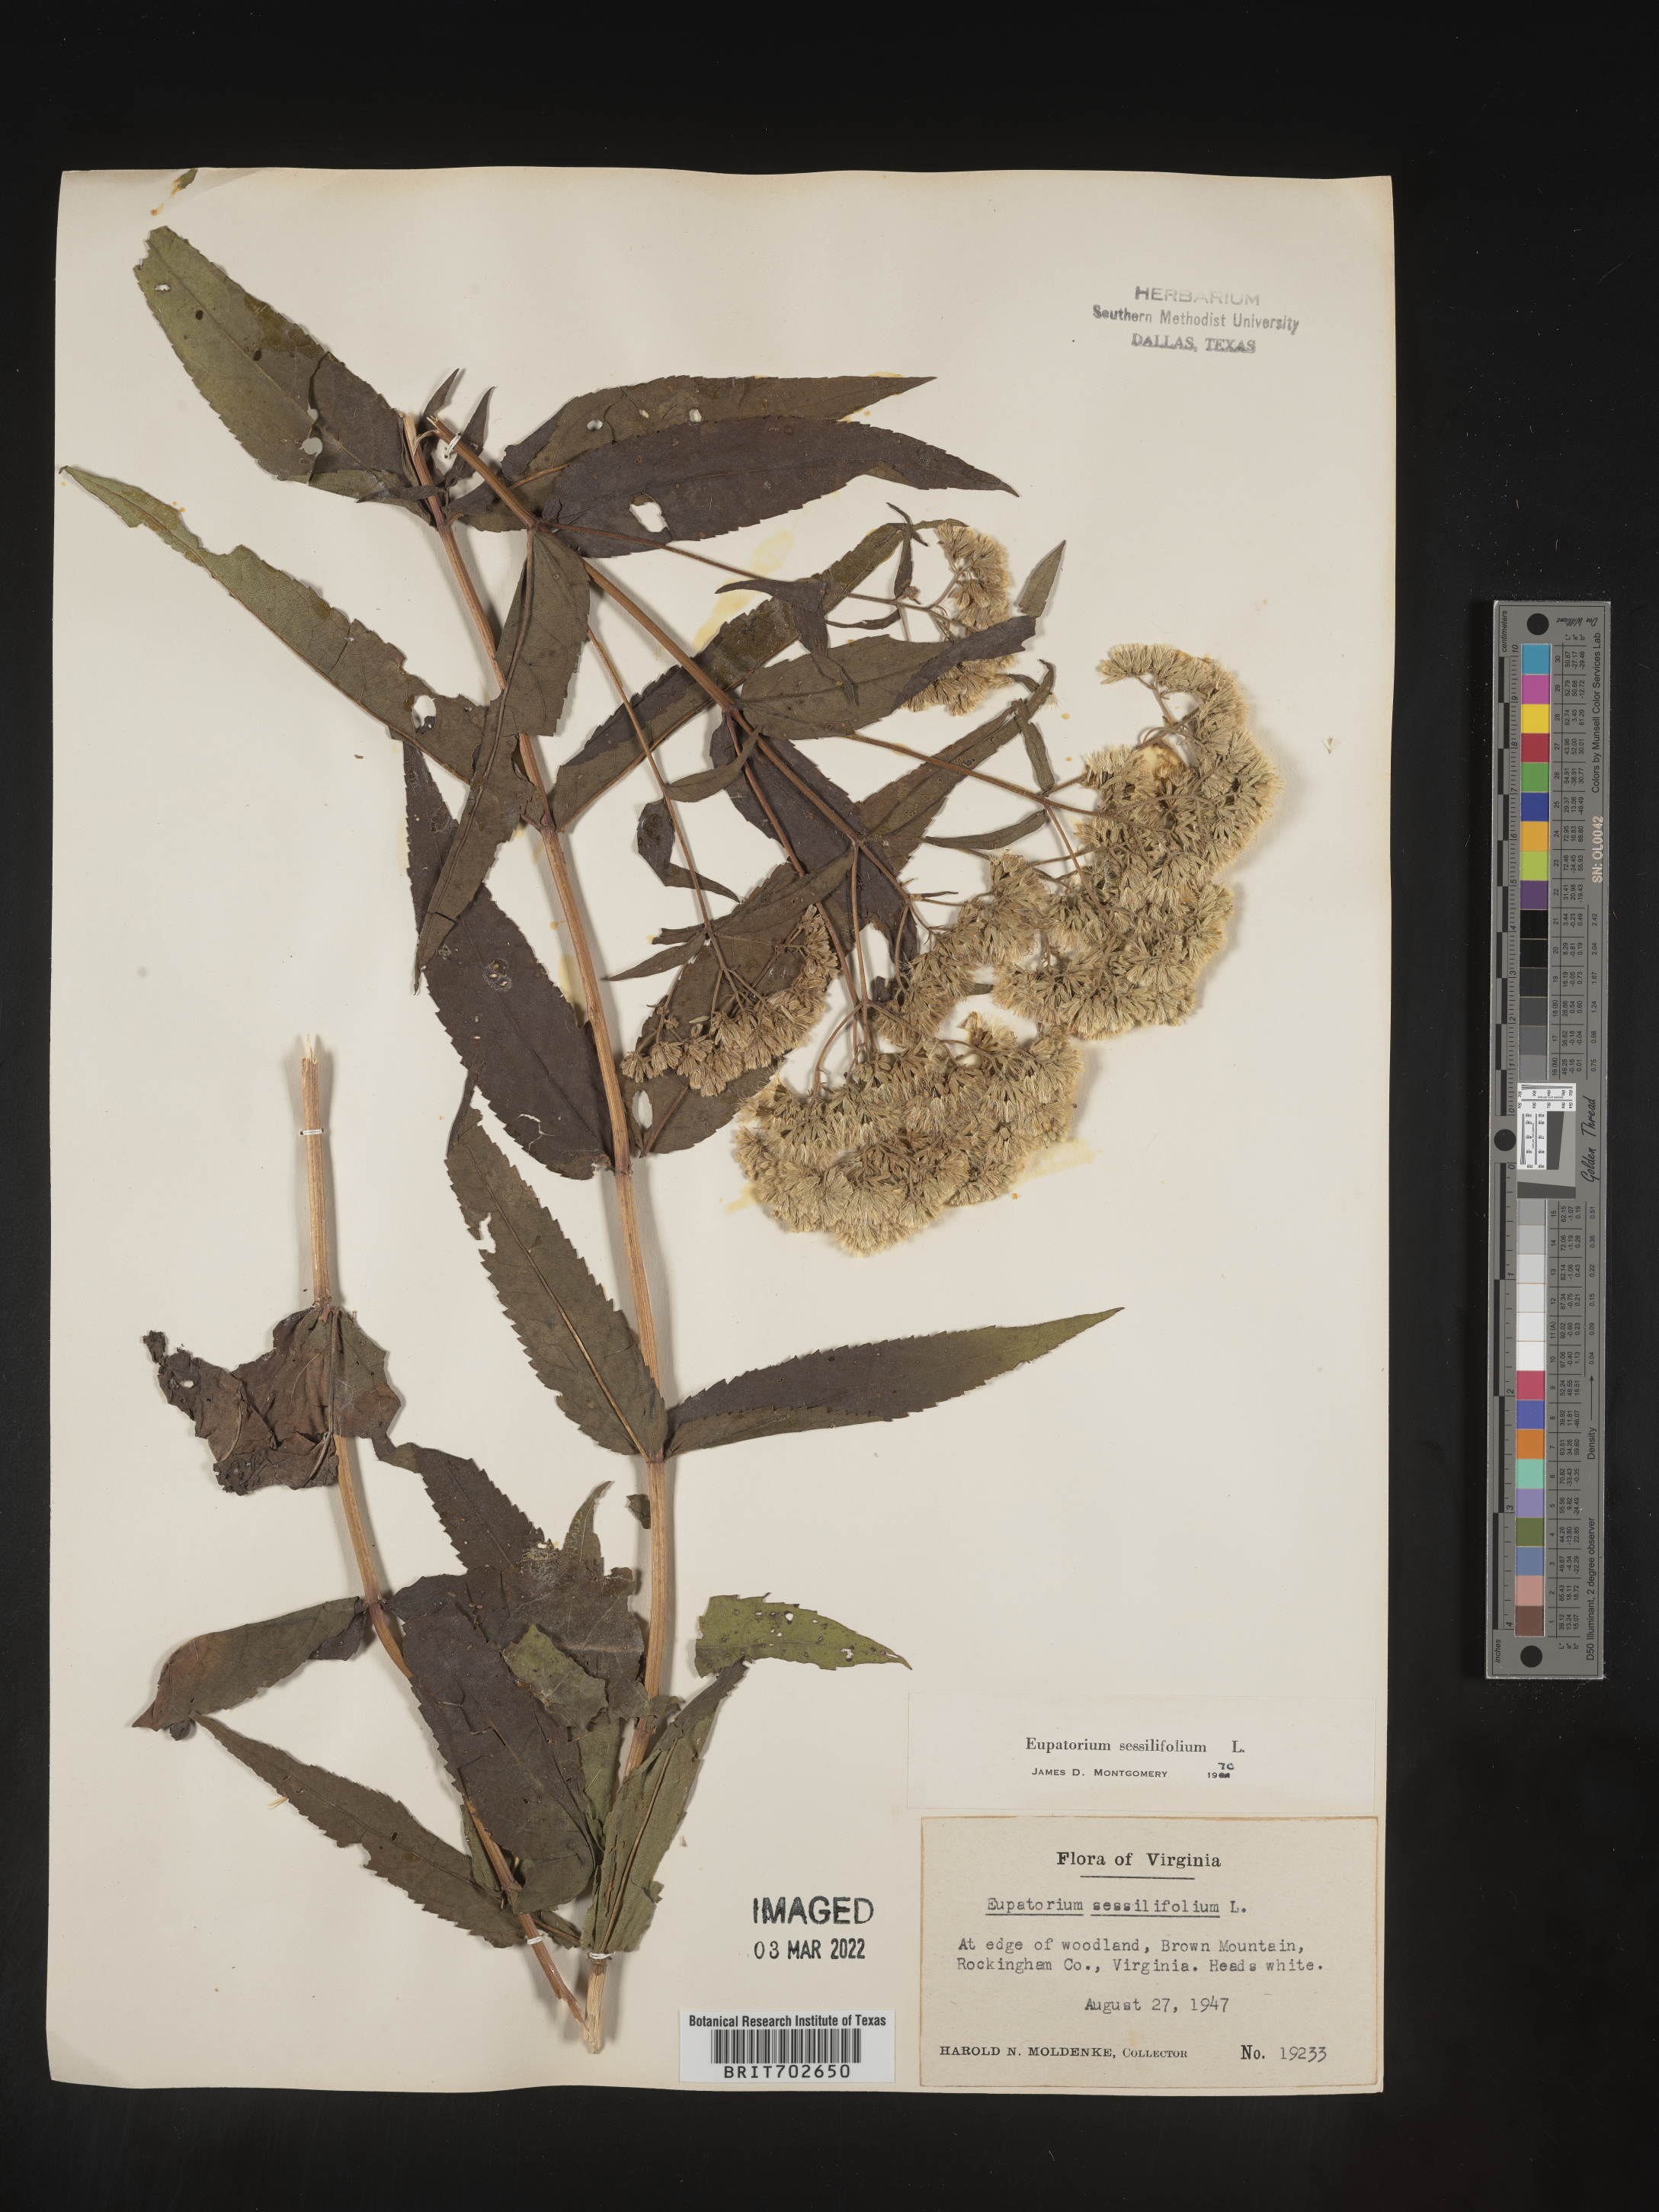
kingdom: Plantae
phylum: Tracheophyta
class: Magnoliopsida
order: Asterales
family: Asteraceae
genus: Eupatorium
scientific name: Eupatorium sessilifolium
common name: Upland boneset
